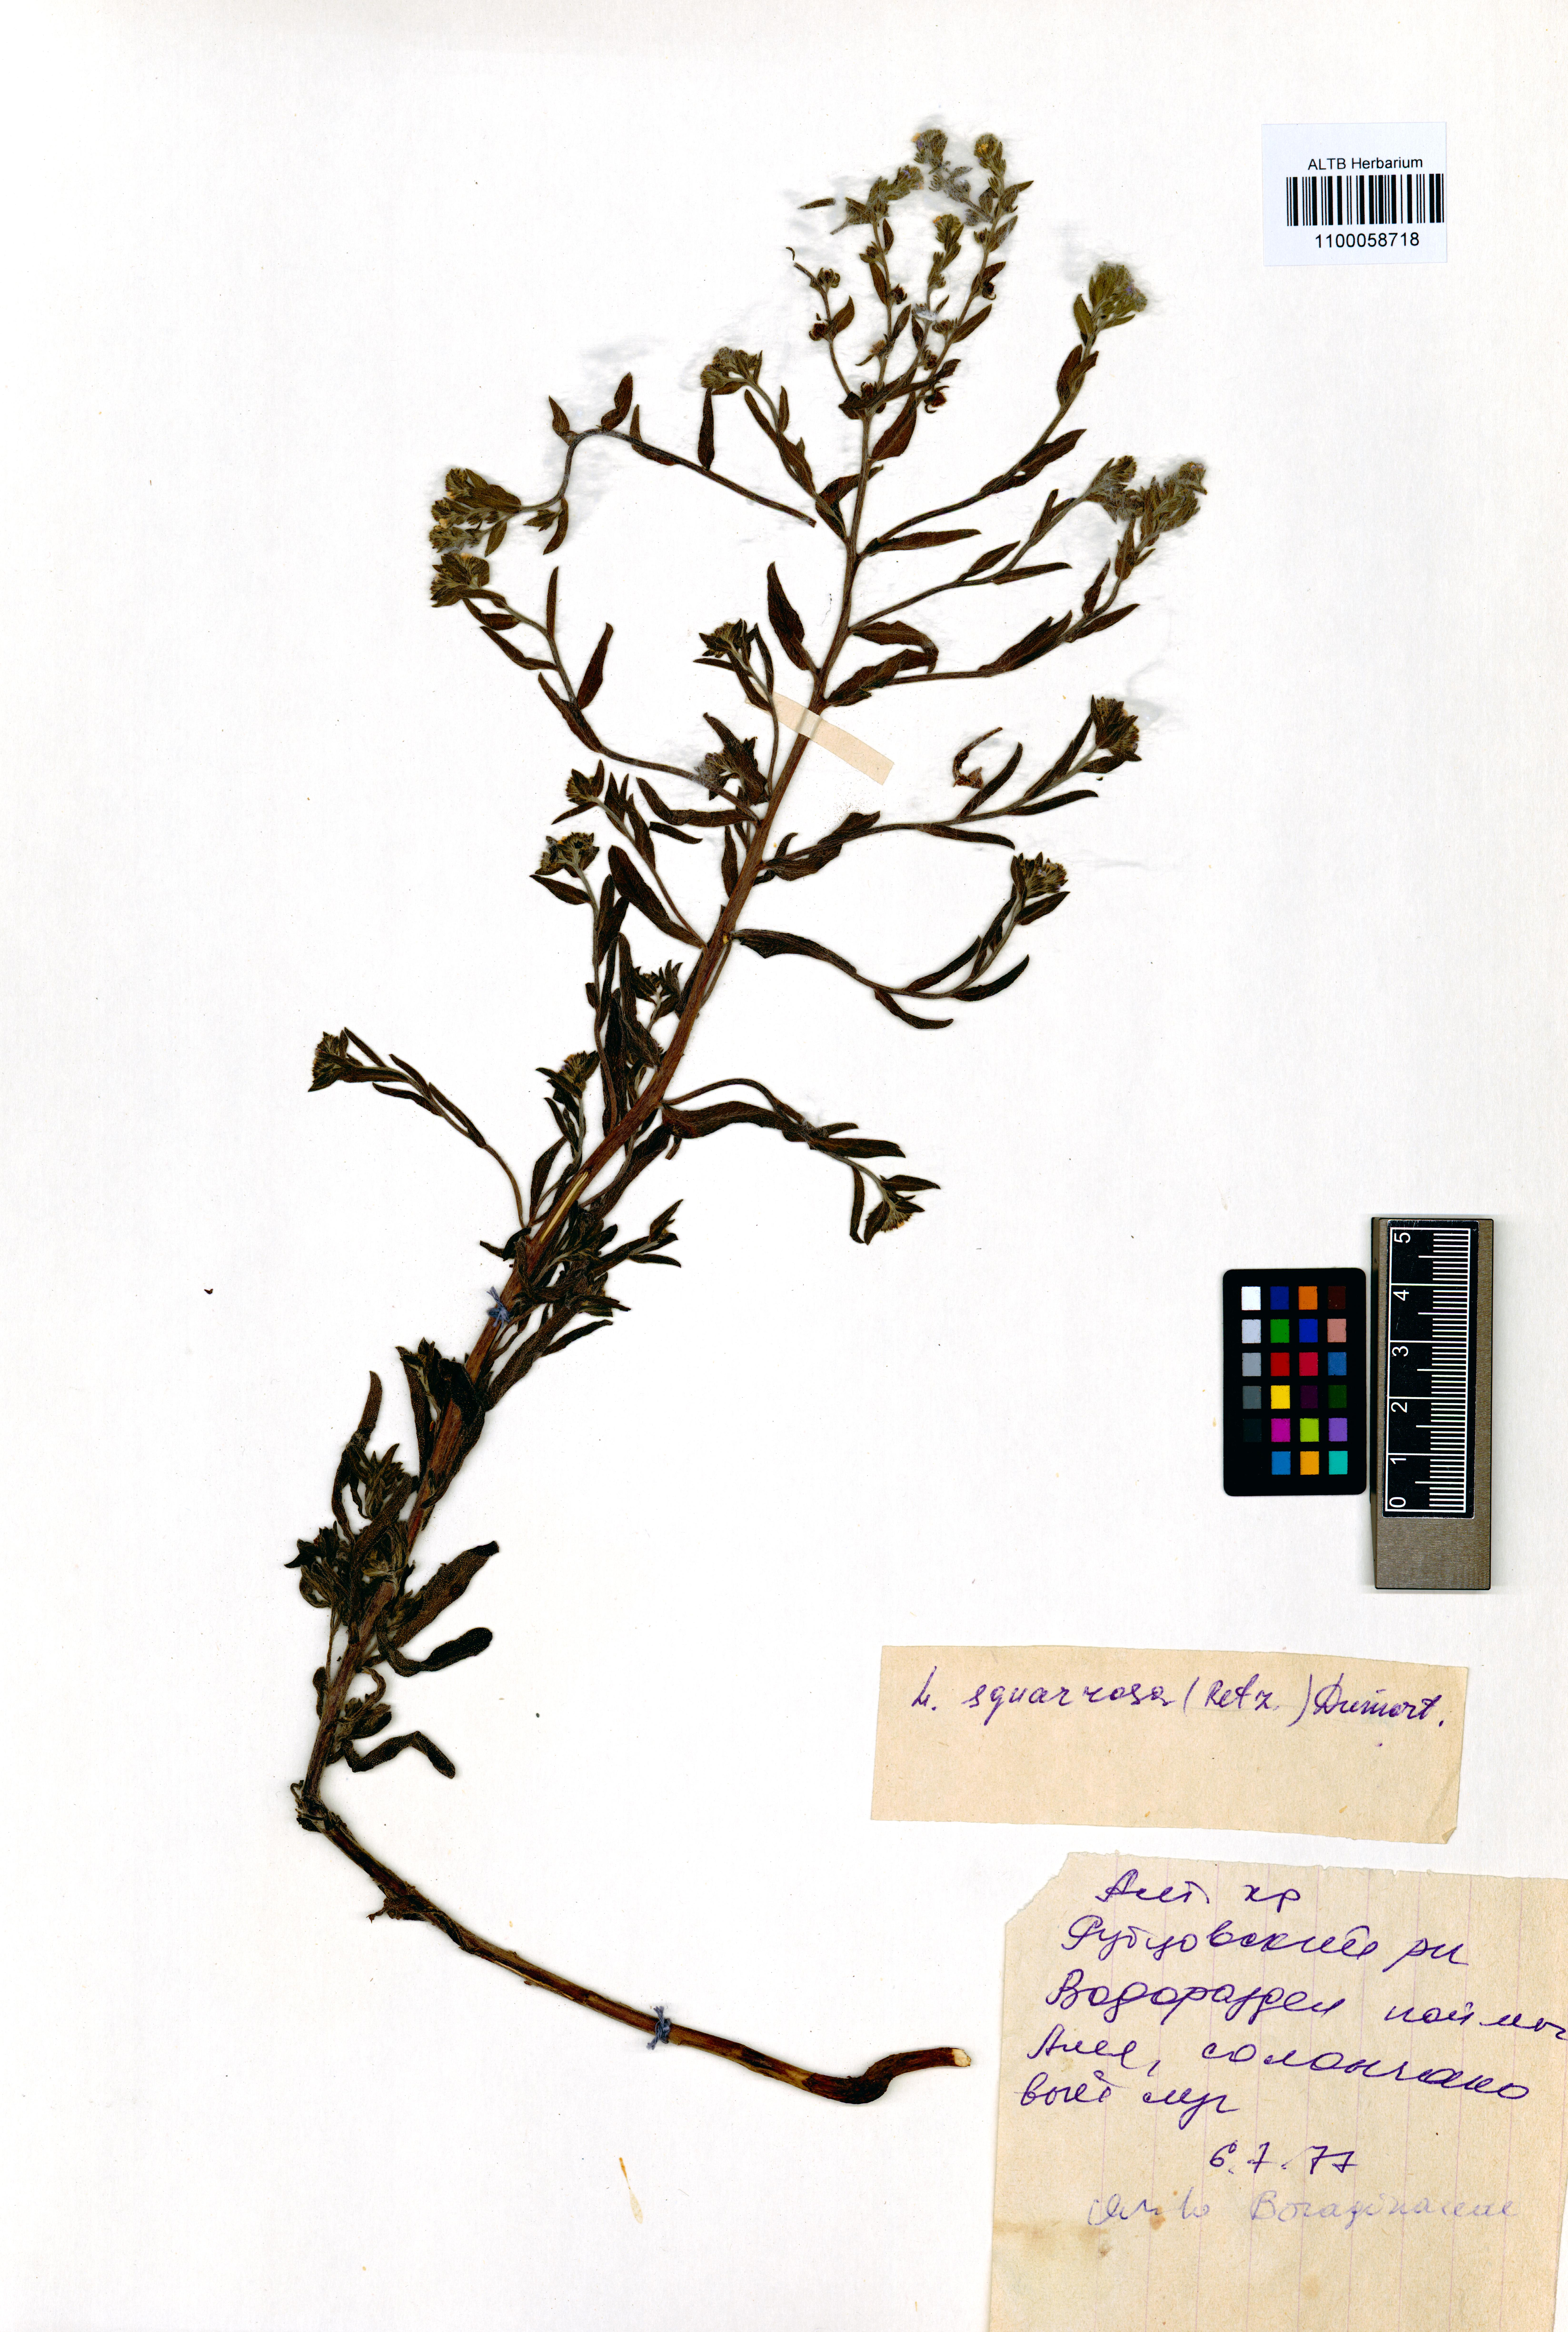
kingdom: Plantae
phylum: Tracheophyta
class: Magnoliopsida
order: Boraginales
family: Boraginaceae
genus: Lappula
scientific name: Lappula squarrosa
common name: European stickseed
